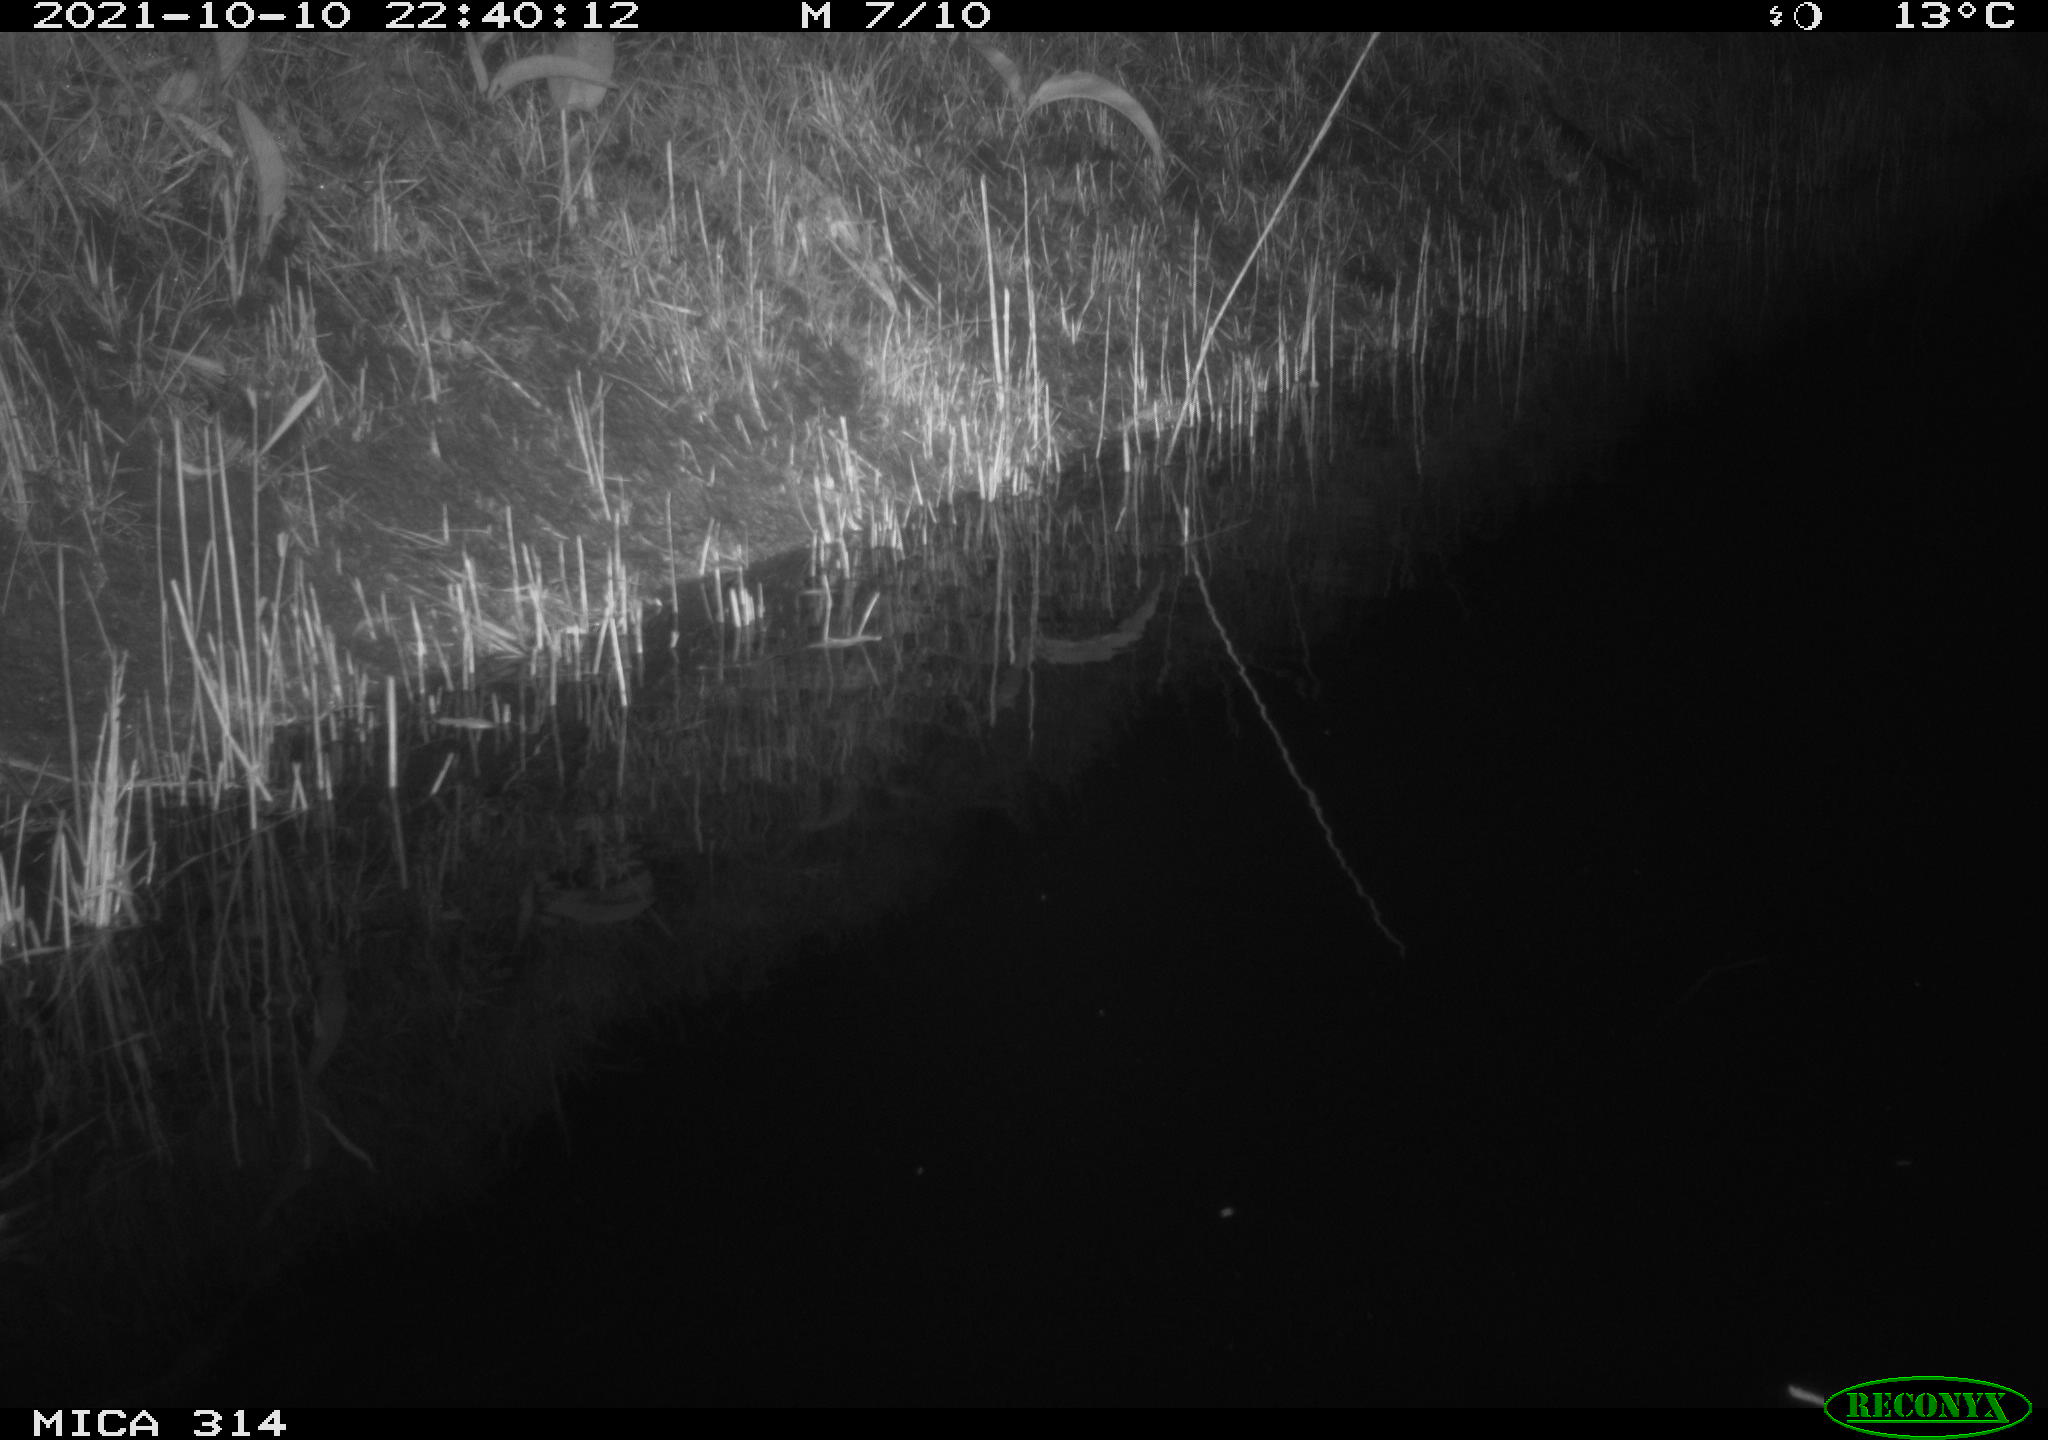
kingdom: Animalia
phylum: Chordata
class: Mammalia
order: Rodentia
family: Muridae
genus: Rattus
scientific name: Rattus norvegicus
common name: Brown rat
